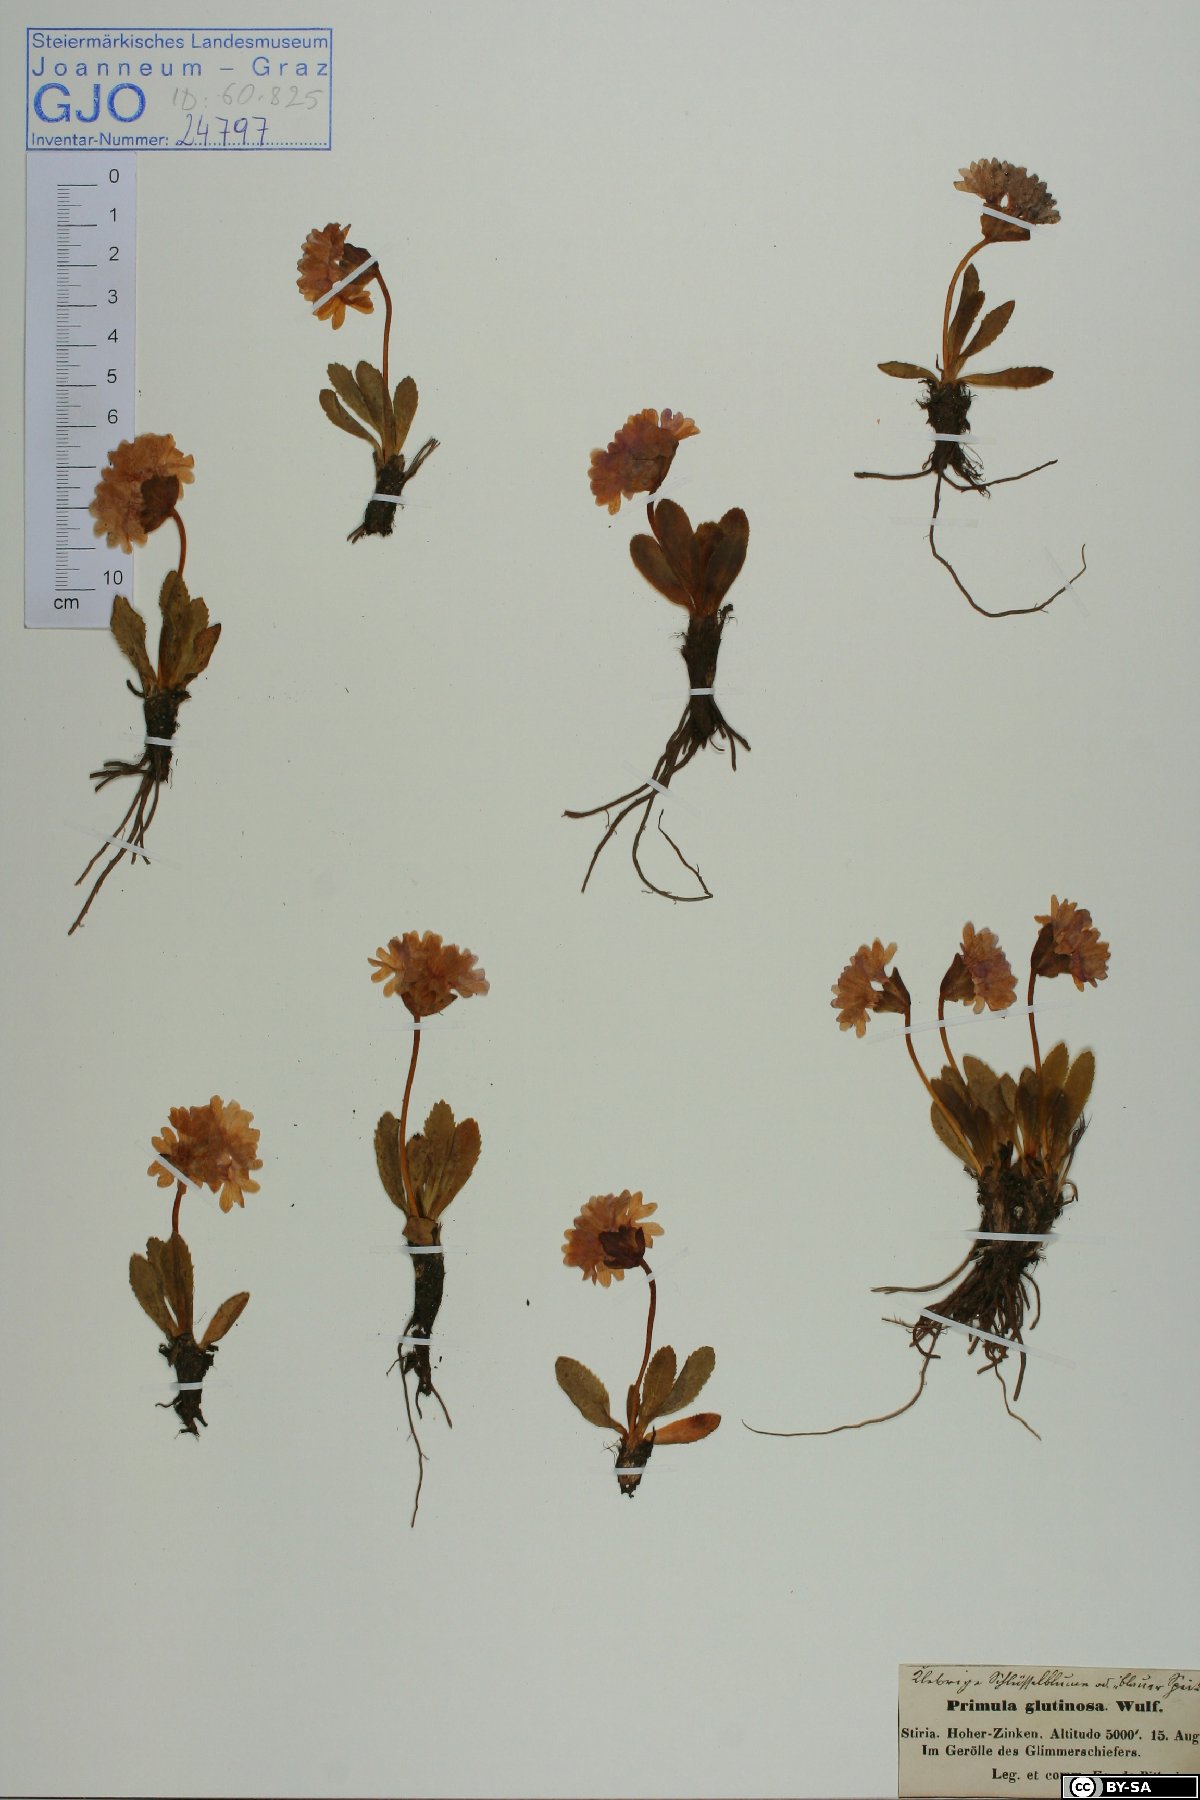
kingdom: Plantae
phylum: Tracheophyta
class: Magnoliopsida
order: Ericales
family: Primulaceae
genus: Primula
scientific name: Primula glutinosa
